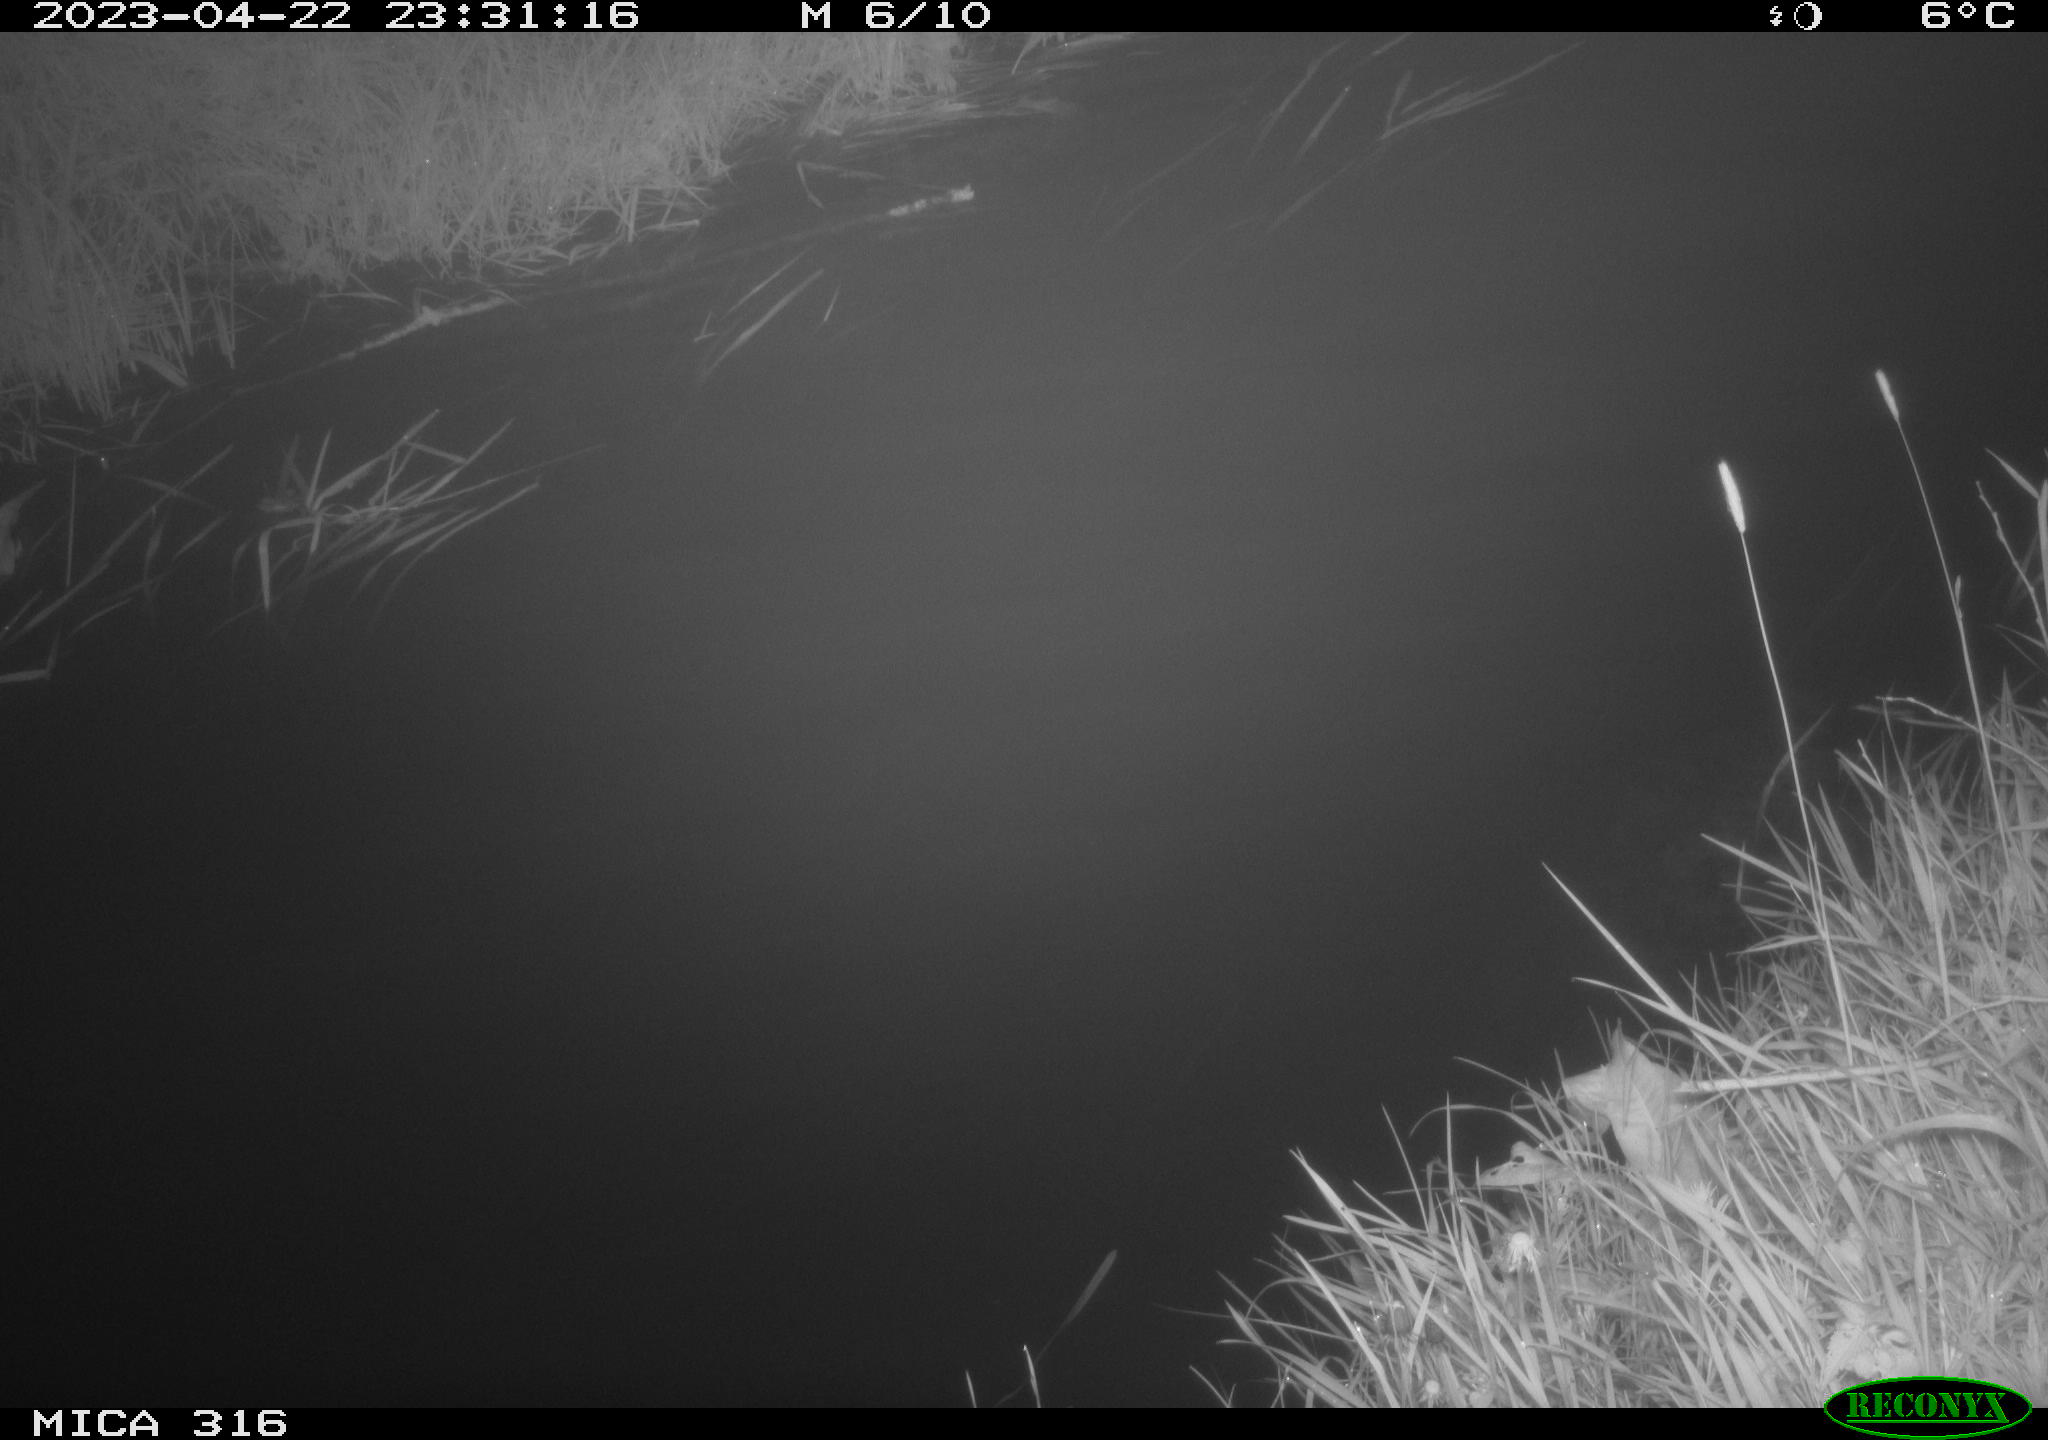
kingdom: Animalia
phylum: Chordata
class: Aves
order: Anseriformes
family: Anatidae
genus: Anas
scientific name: Anas
